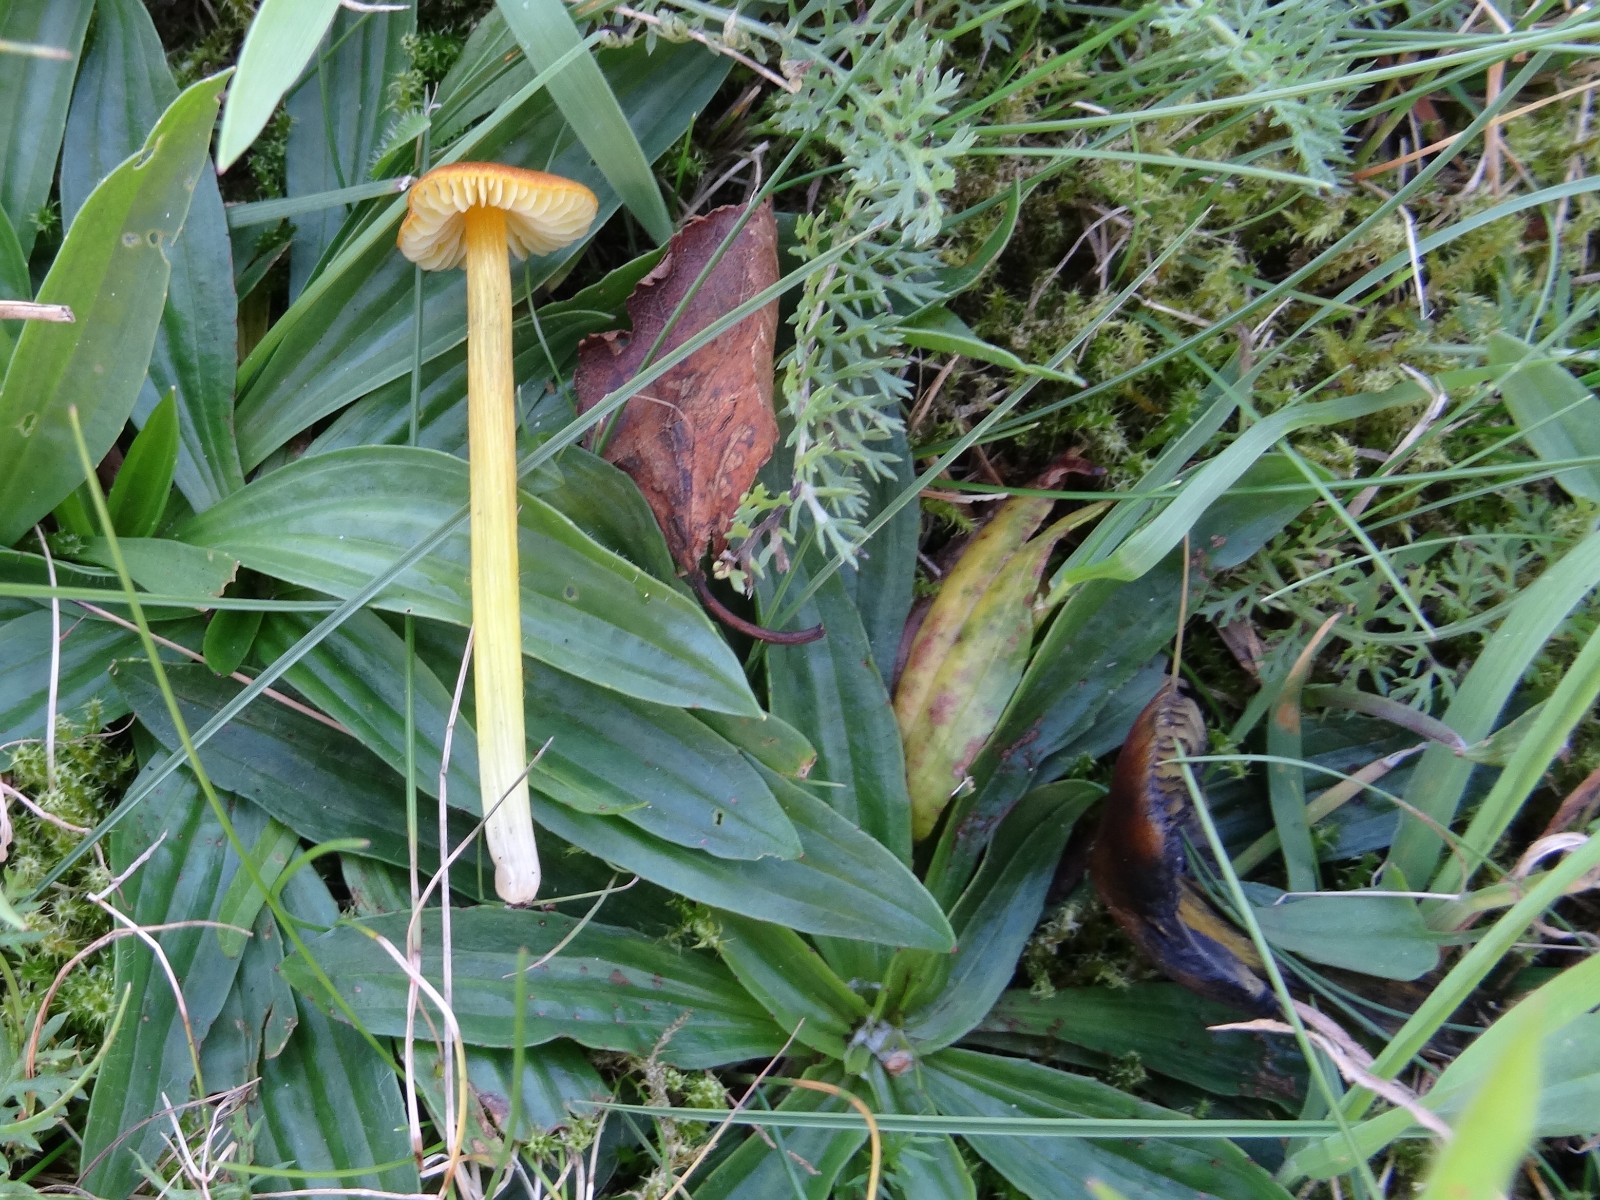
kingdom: Fungi
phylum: Basidiomycota
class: Agaricomycetes
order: Agaricales
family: Hygrophoraceae
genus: Hygrocybe
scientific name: Hygrocybe conica
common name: kegle-vokshat
